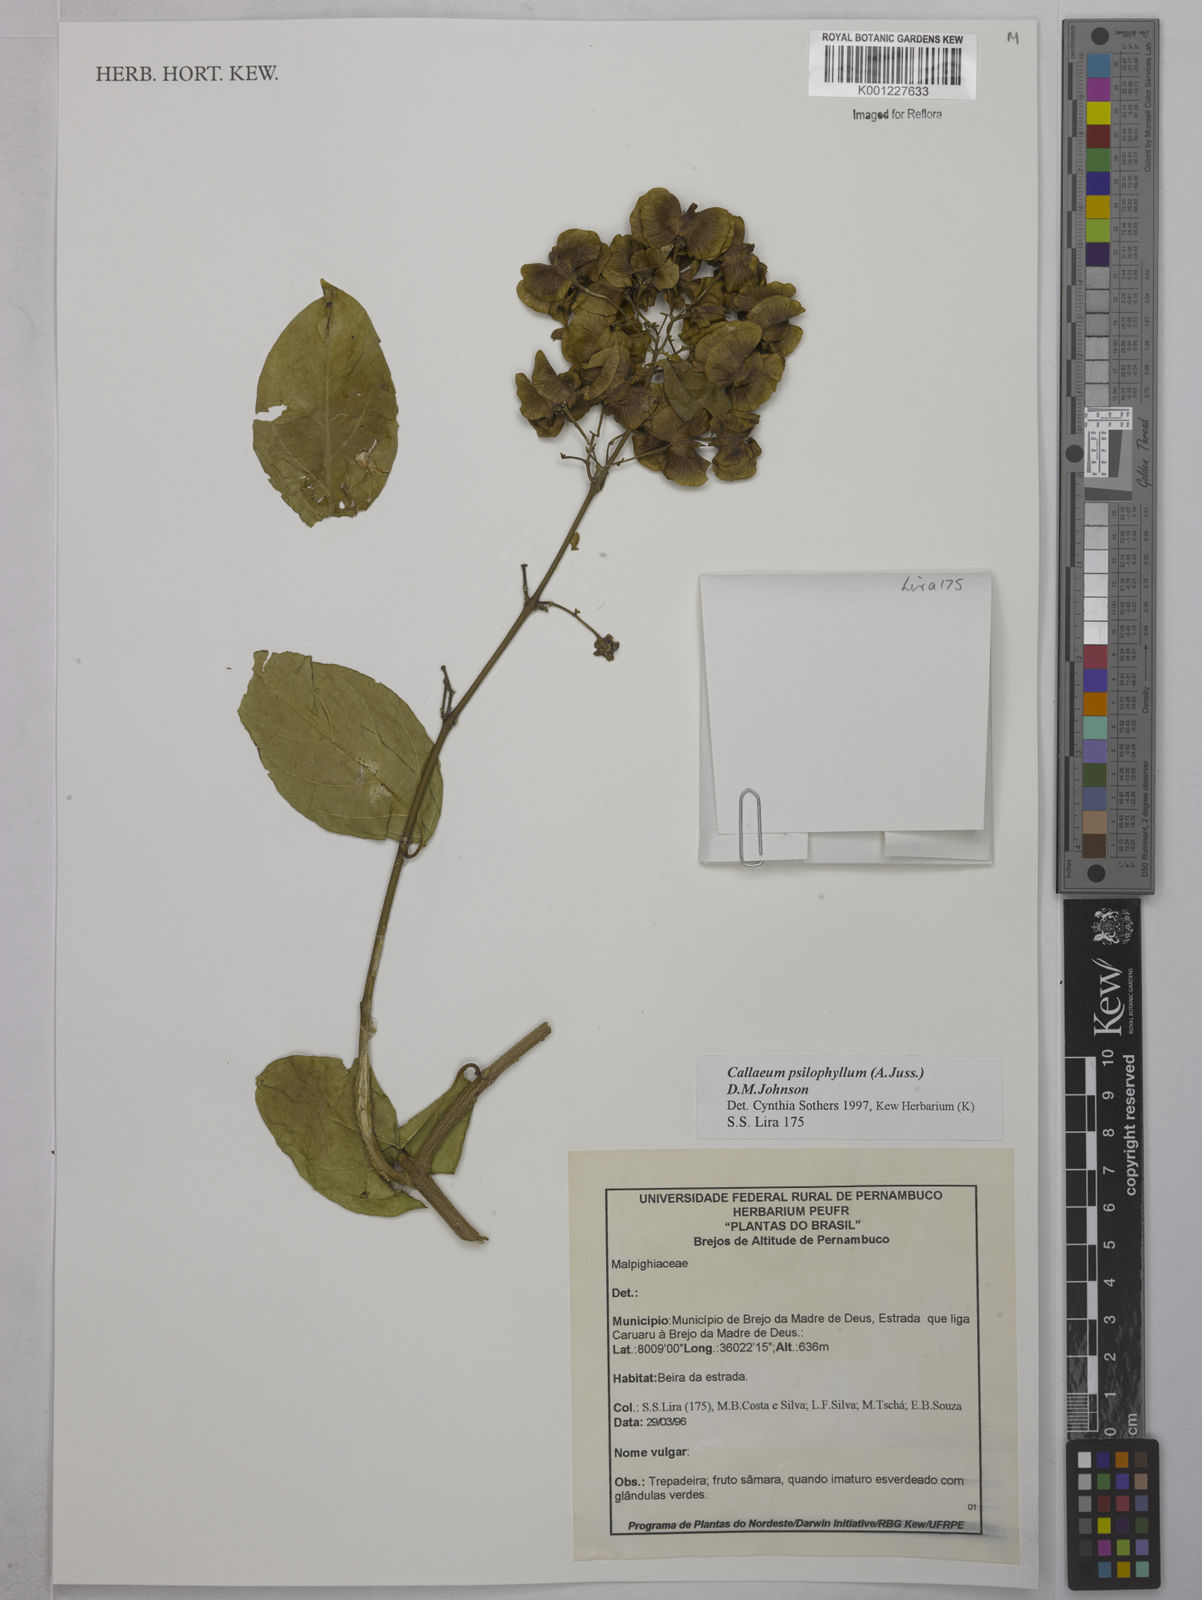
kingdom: Plantae
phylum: Tracheophyta
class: Magnoliopsida
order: Malpighiales
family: Malpighiaceae
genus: Callaeum
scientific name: Callaeum psilophyllum
